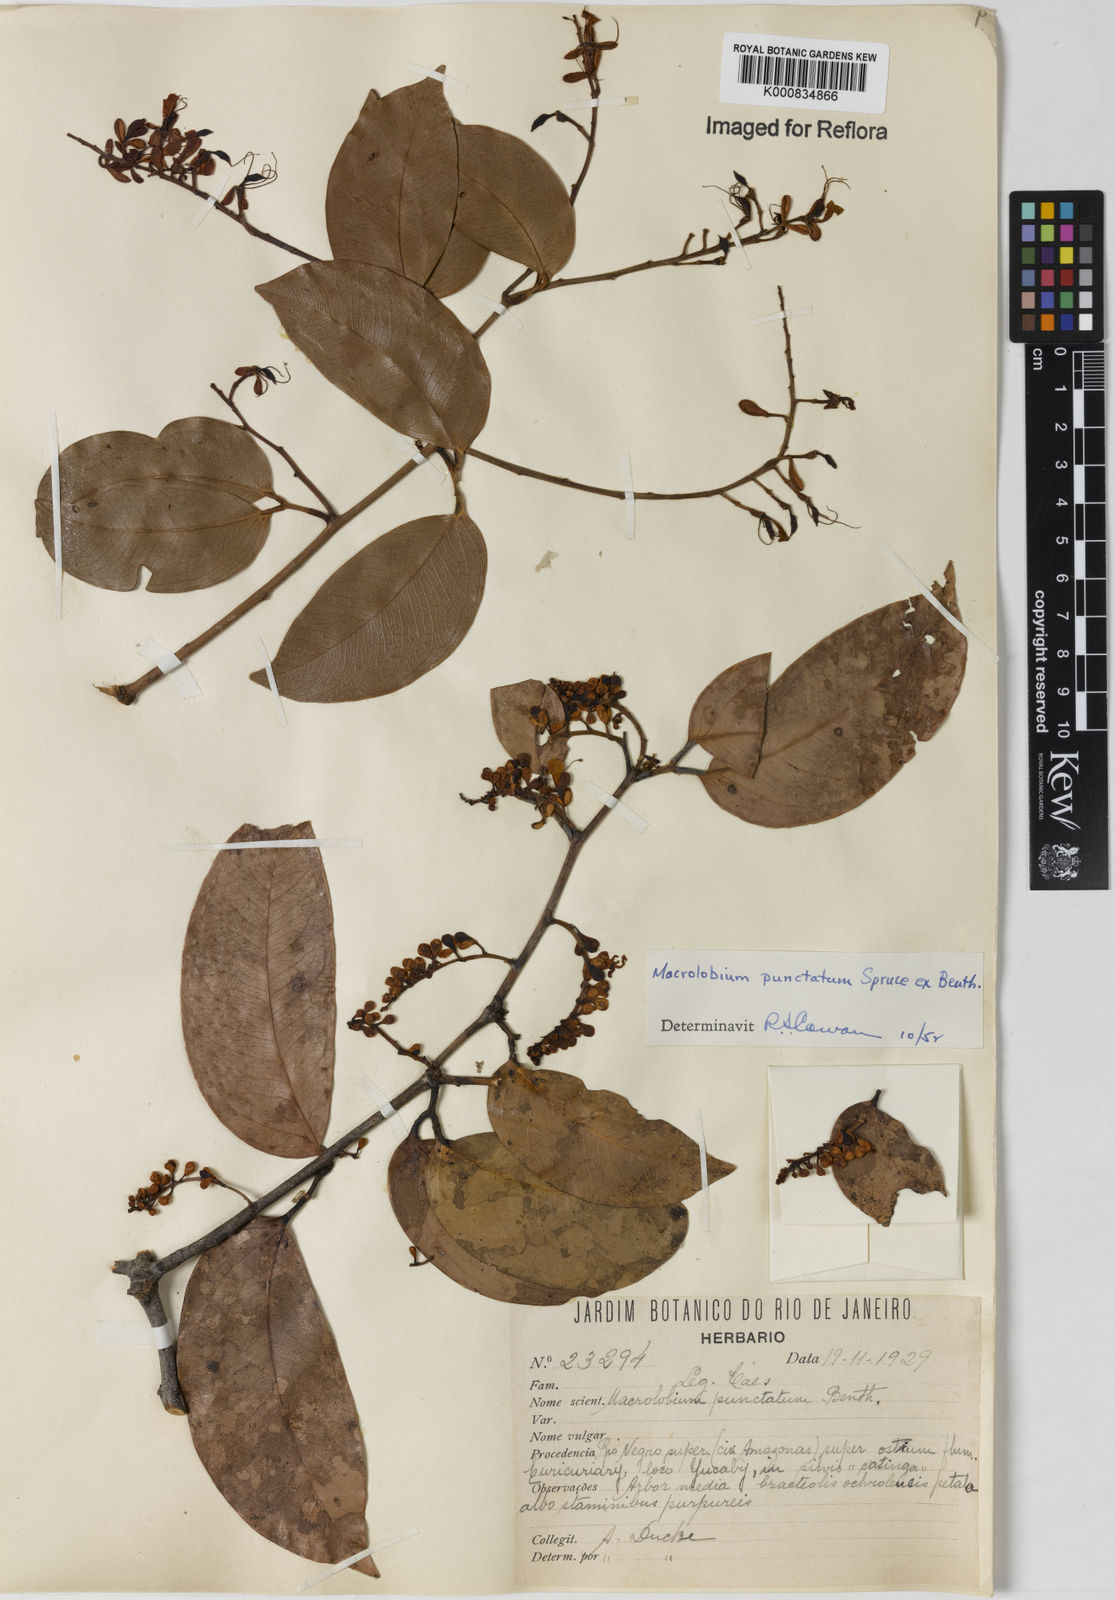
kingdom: Plantae
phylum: Tracheophyta
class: Magnoliopsida
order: Fabales
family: Fabaceae
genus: Macrolobium
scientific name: Macrolobium punctatum
